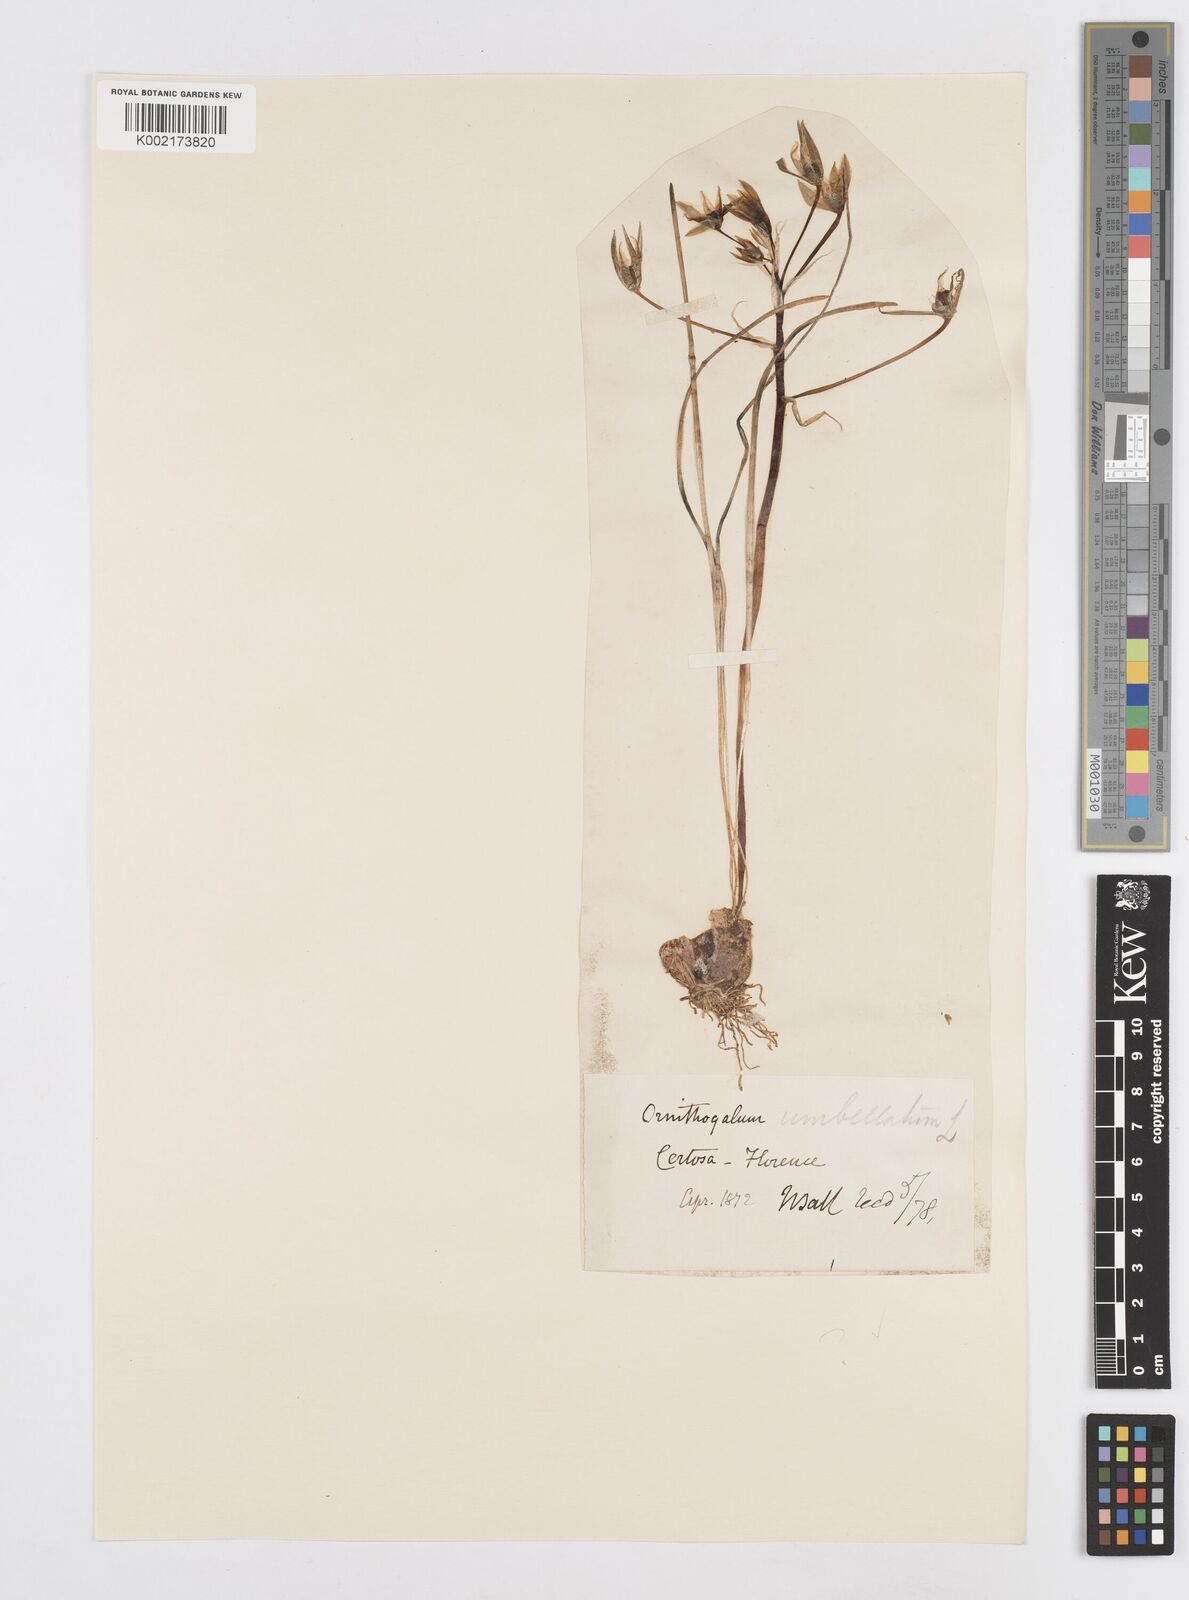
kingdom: Plantae
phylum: Tracheophyta
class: Liliopsida
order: Asparagales
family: Asparagaceae
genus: Ornithogalum
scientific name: Ornithogalum umbellatum
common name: Garden star-of-bethlehem
